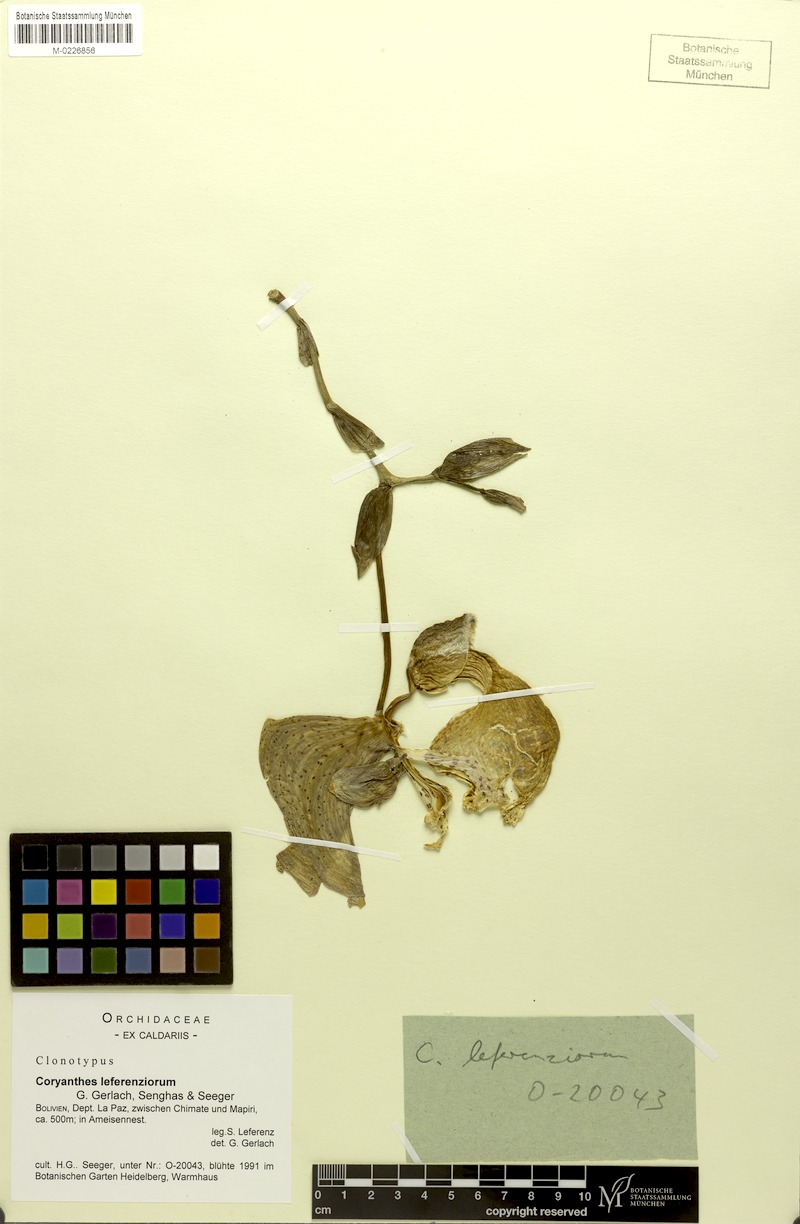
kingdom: Plantae
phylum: Tracheophyta
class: Liliopsida
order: Asparagales
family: Orchidaceae
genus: Coryanthes
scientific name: Coryanthes leferenziorum
